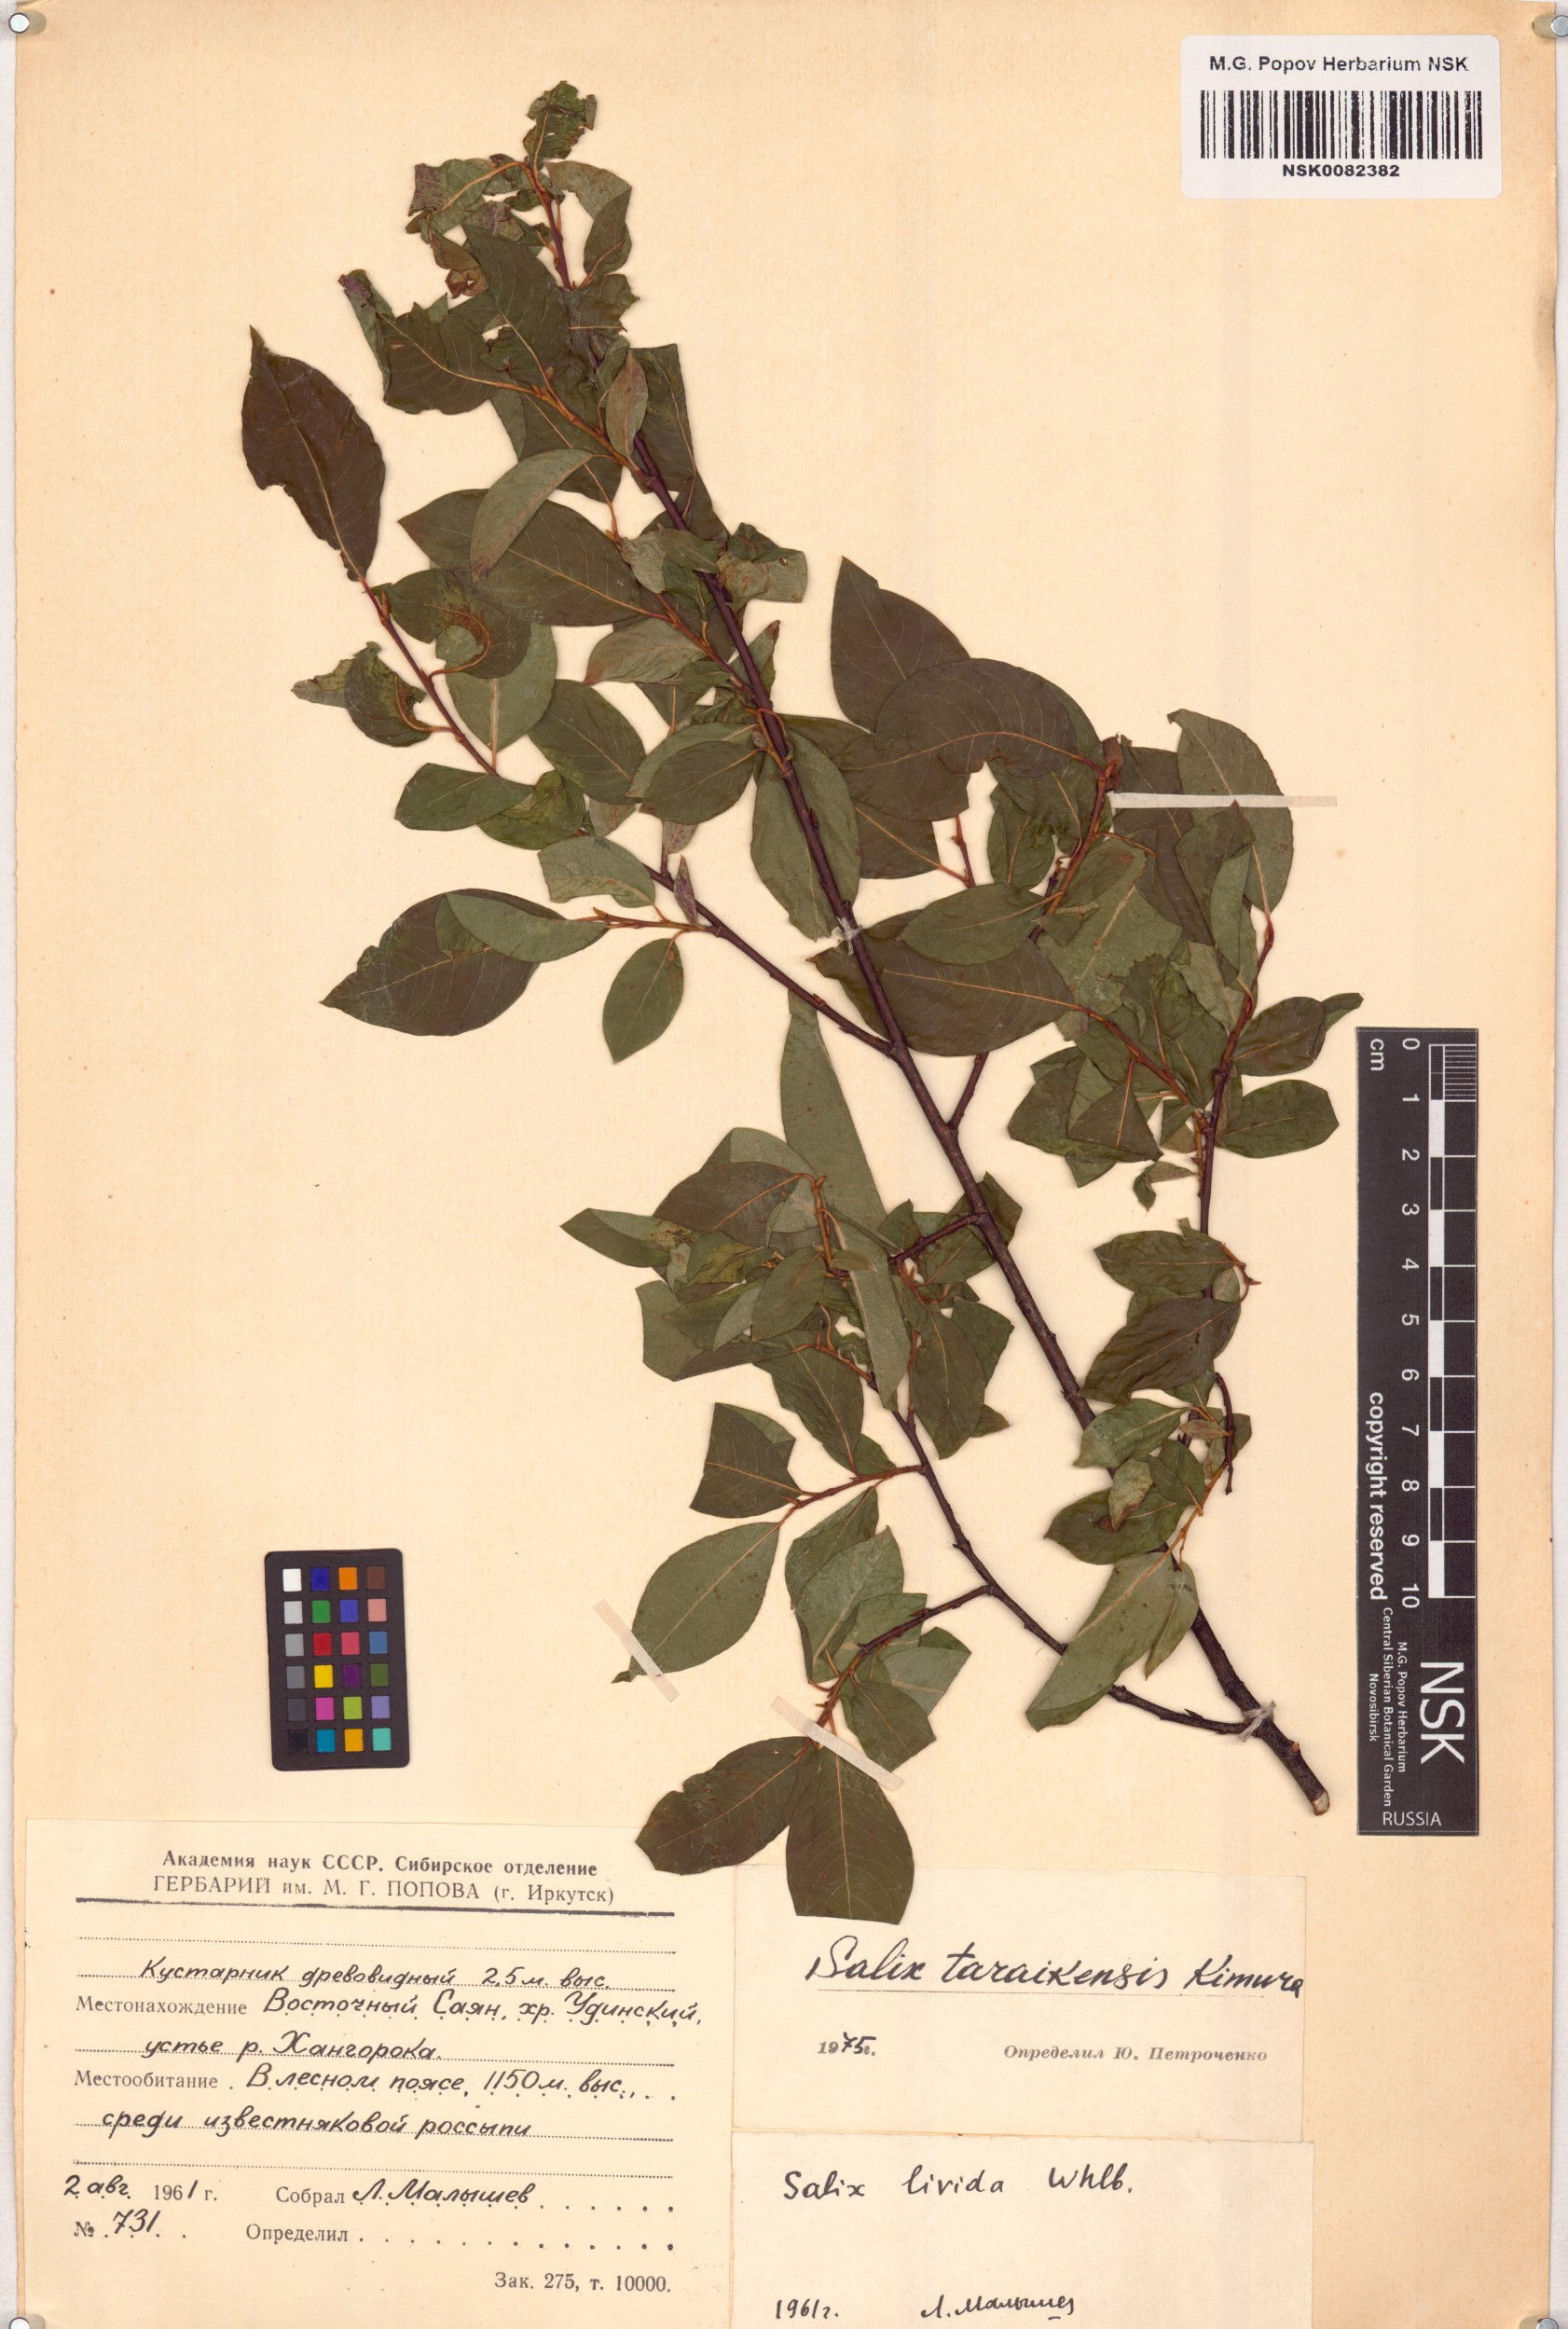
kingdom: Plantae
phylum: Tracheophyta
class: Magnoliopsida
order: Malpighiales
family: Salicaceae
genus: Salix
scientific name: Salix taraikensis
